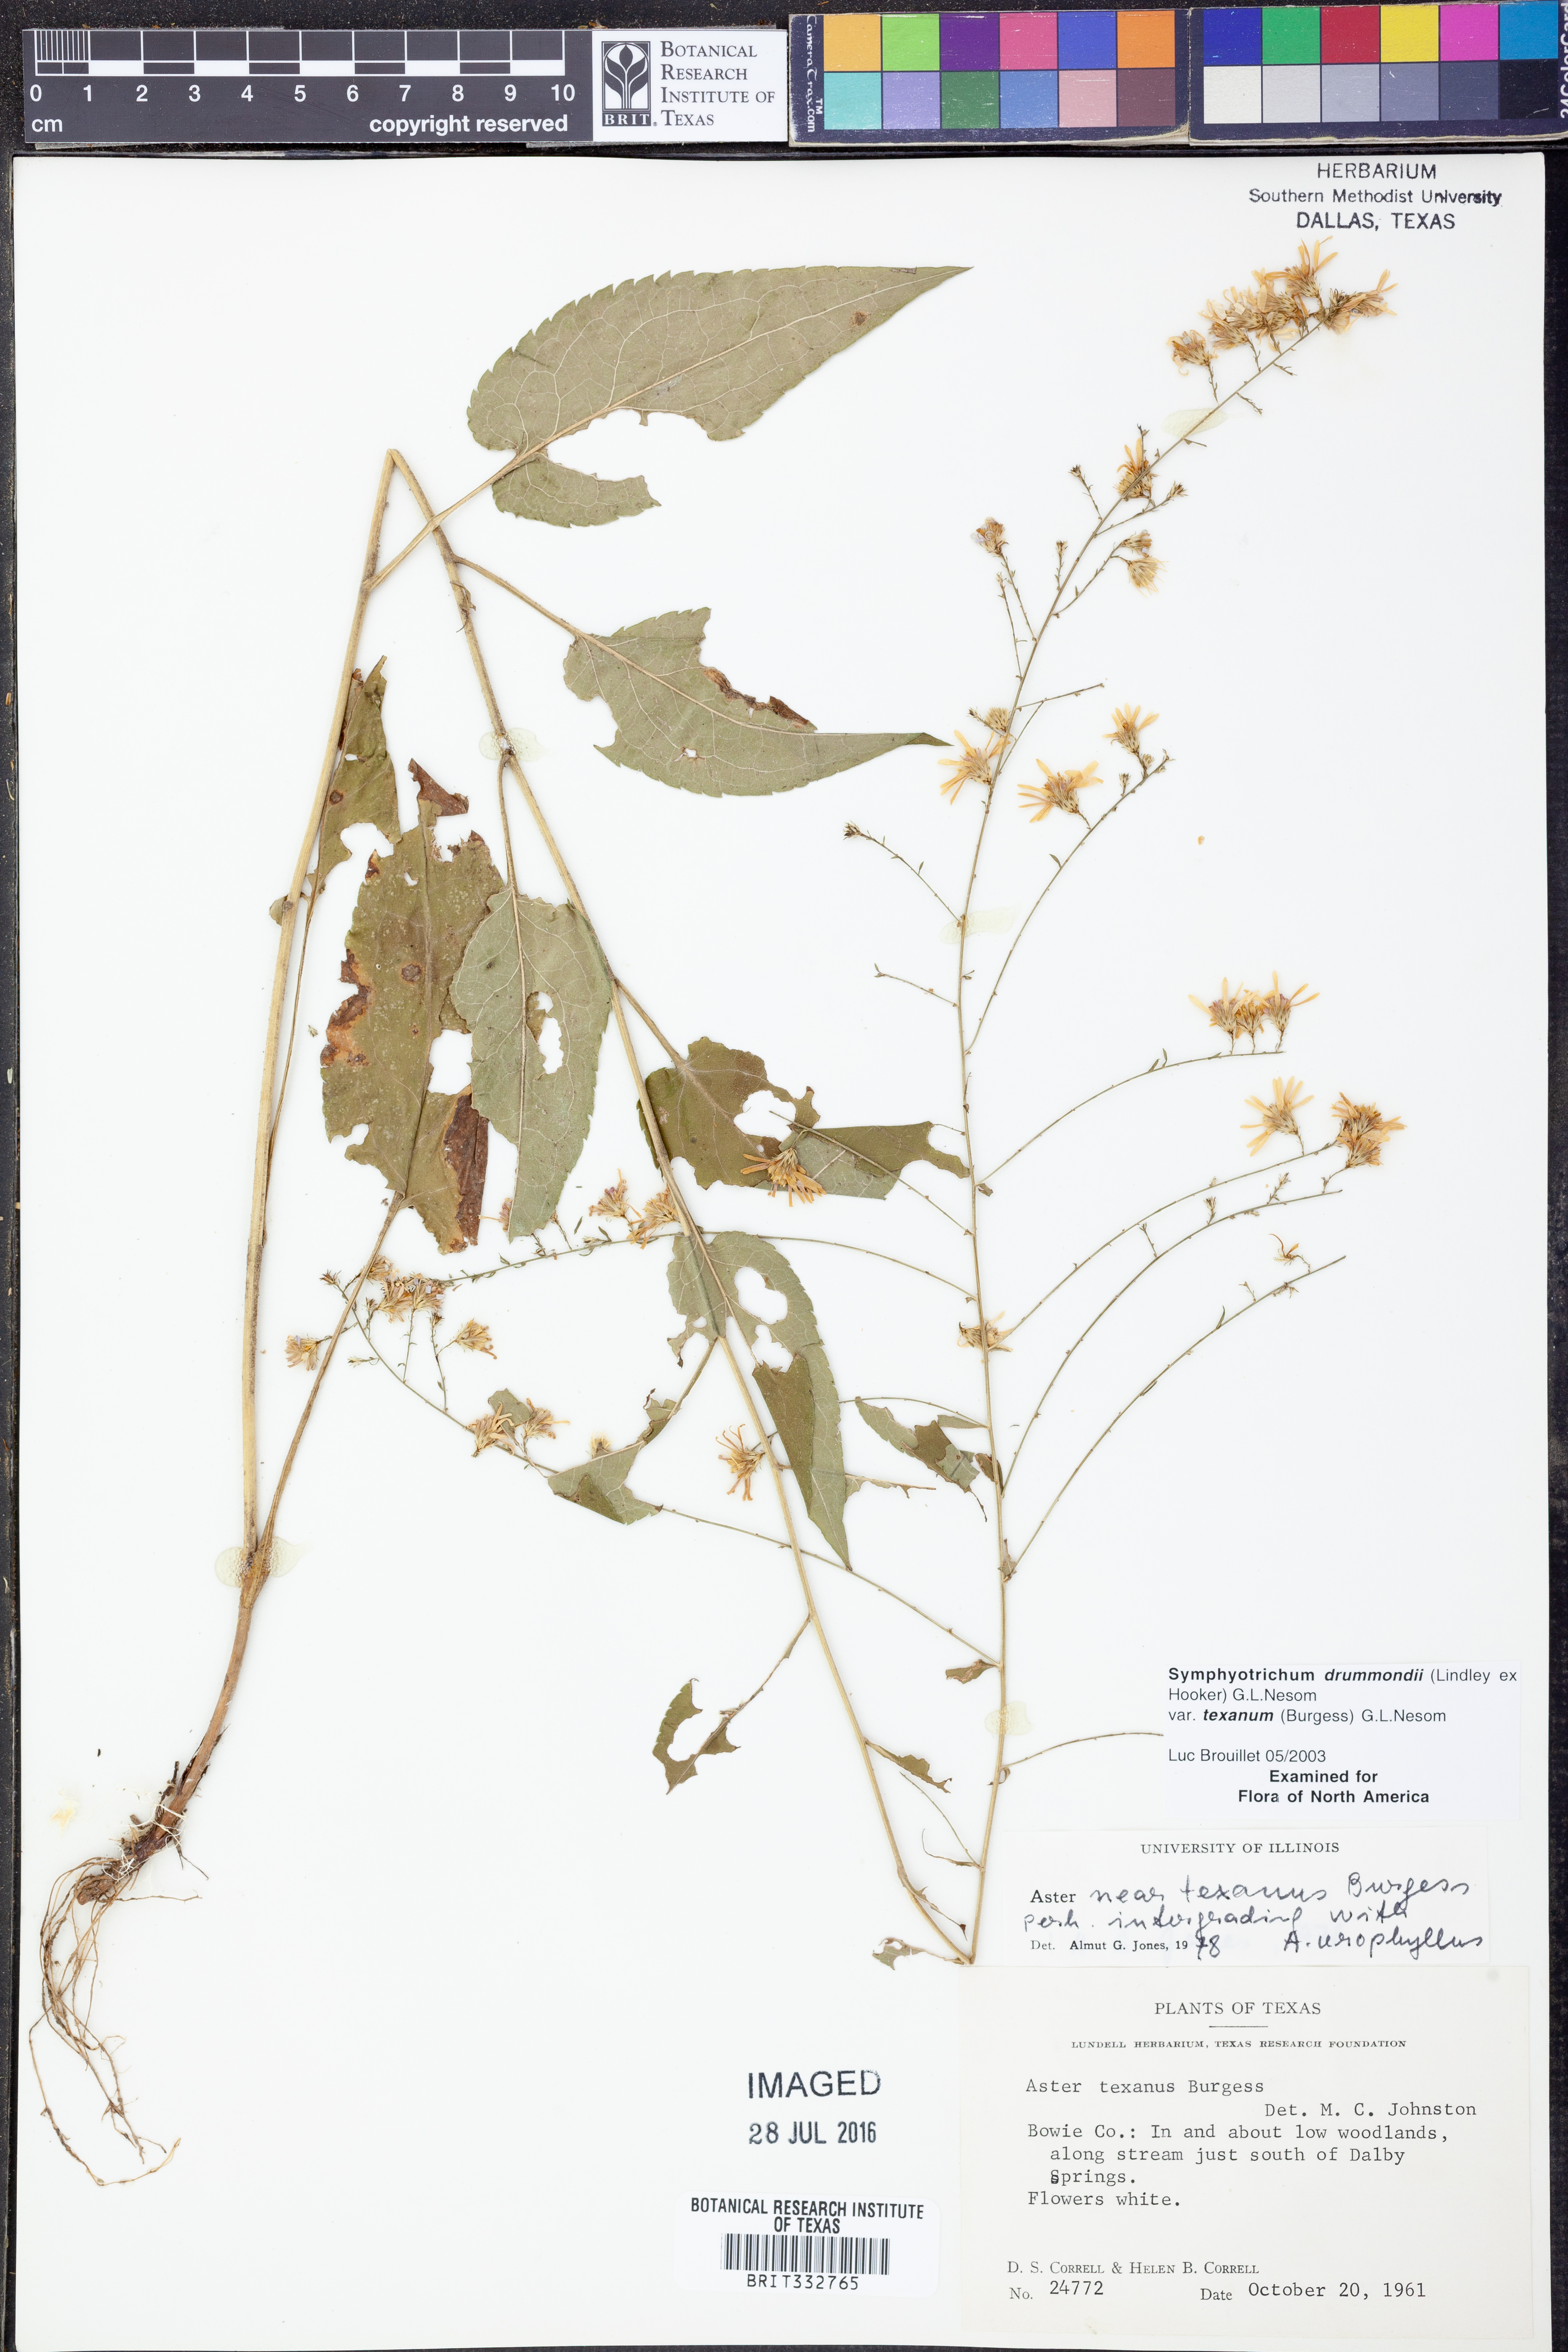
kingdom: Plantae
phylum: Tracheophyta
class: Magnoliopsida
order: Asterales
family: Asteraceae
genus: Symphyotrichum
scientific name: Symphyotrichum drummondii
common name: Drummond's aster
